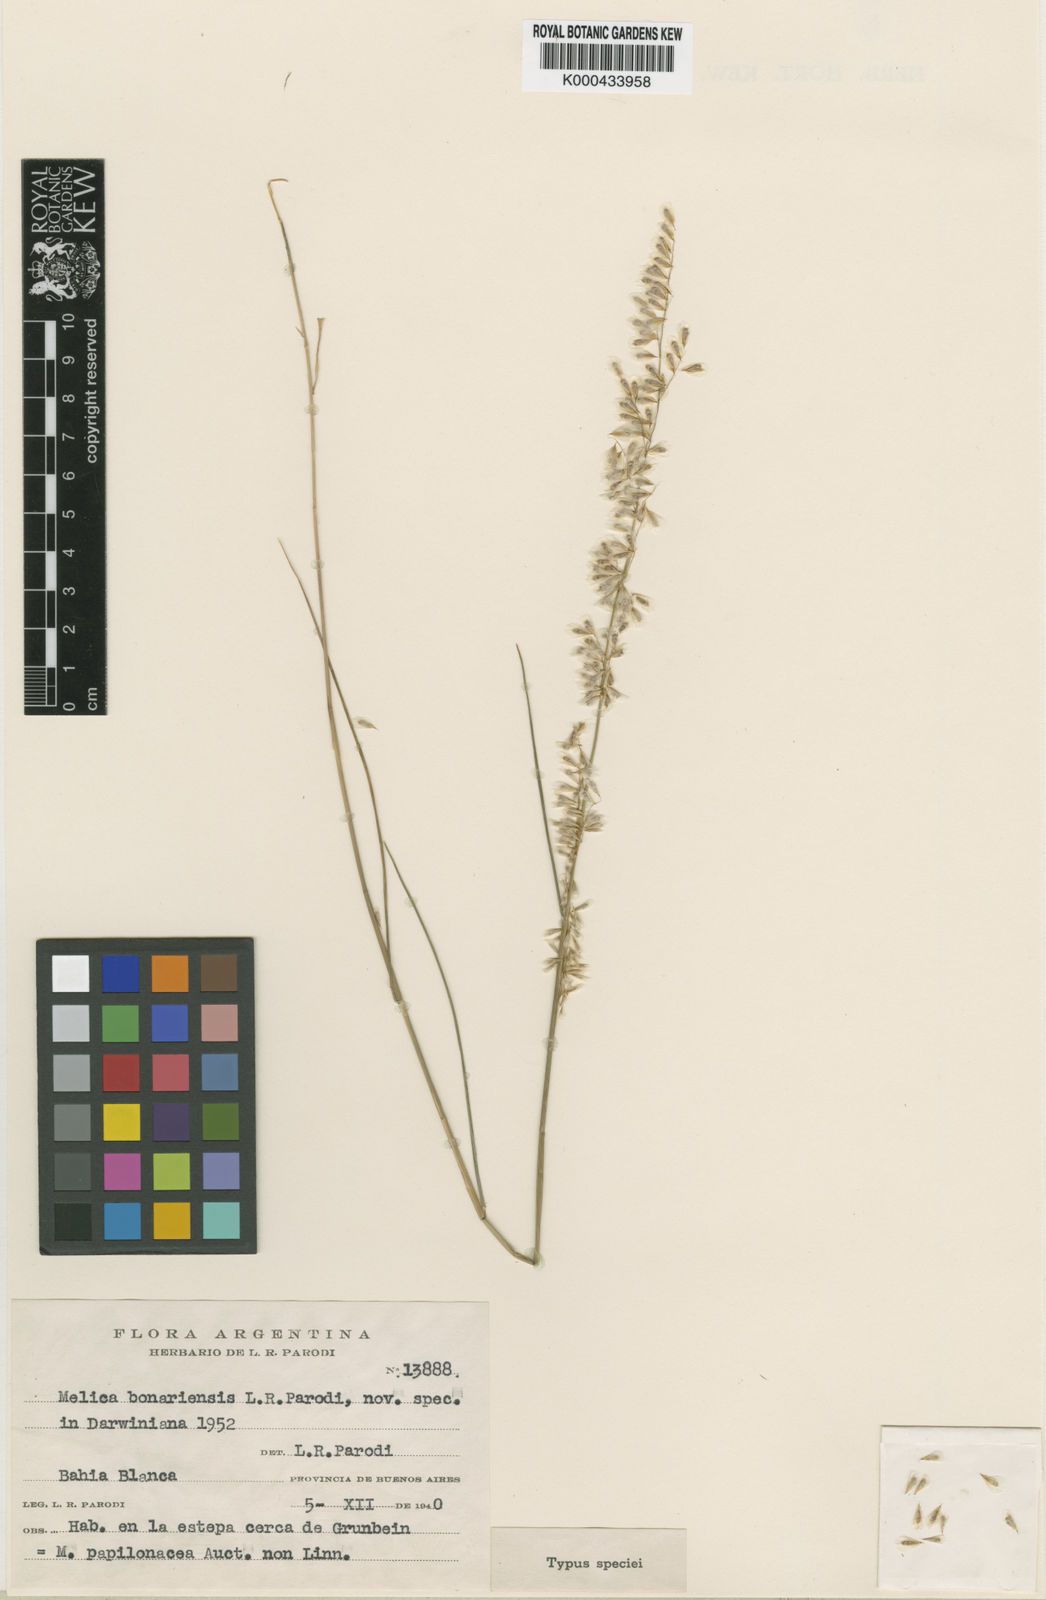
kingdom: Plantae
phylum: Tracheophyta
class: Liliopsida
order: Poales
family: Poaceae
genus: Melica
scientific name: Melica bonariensis
